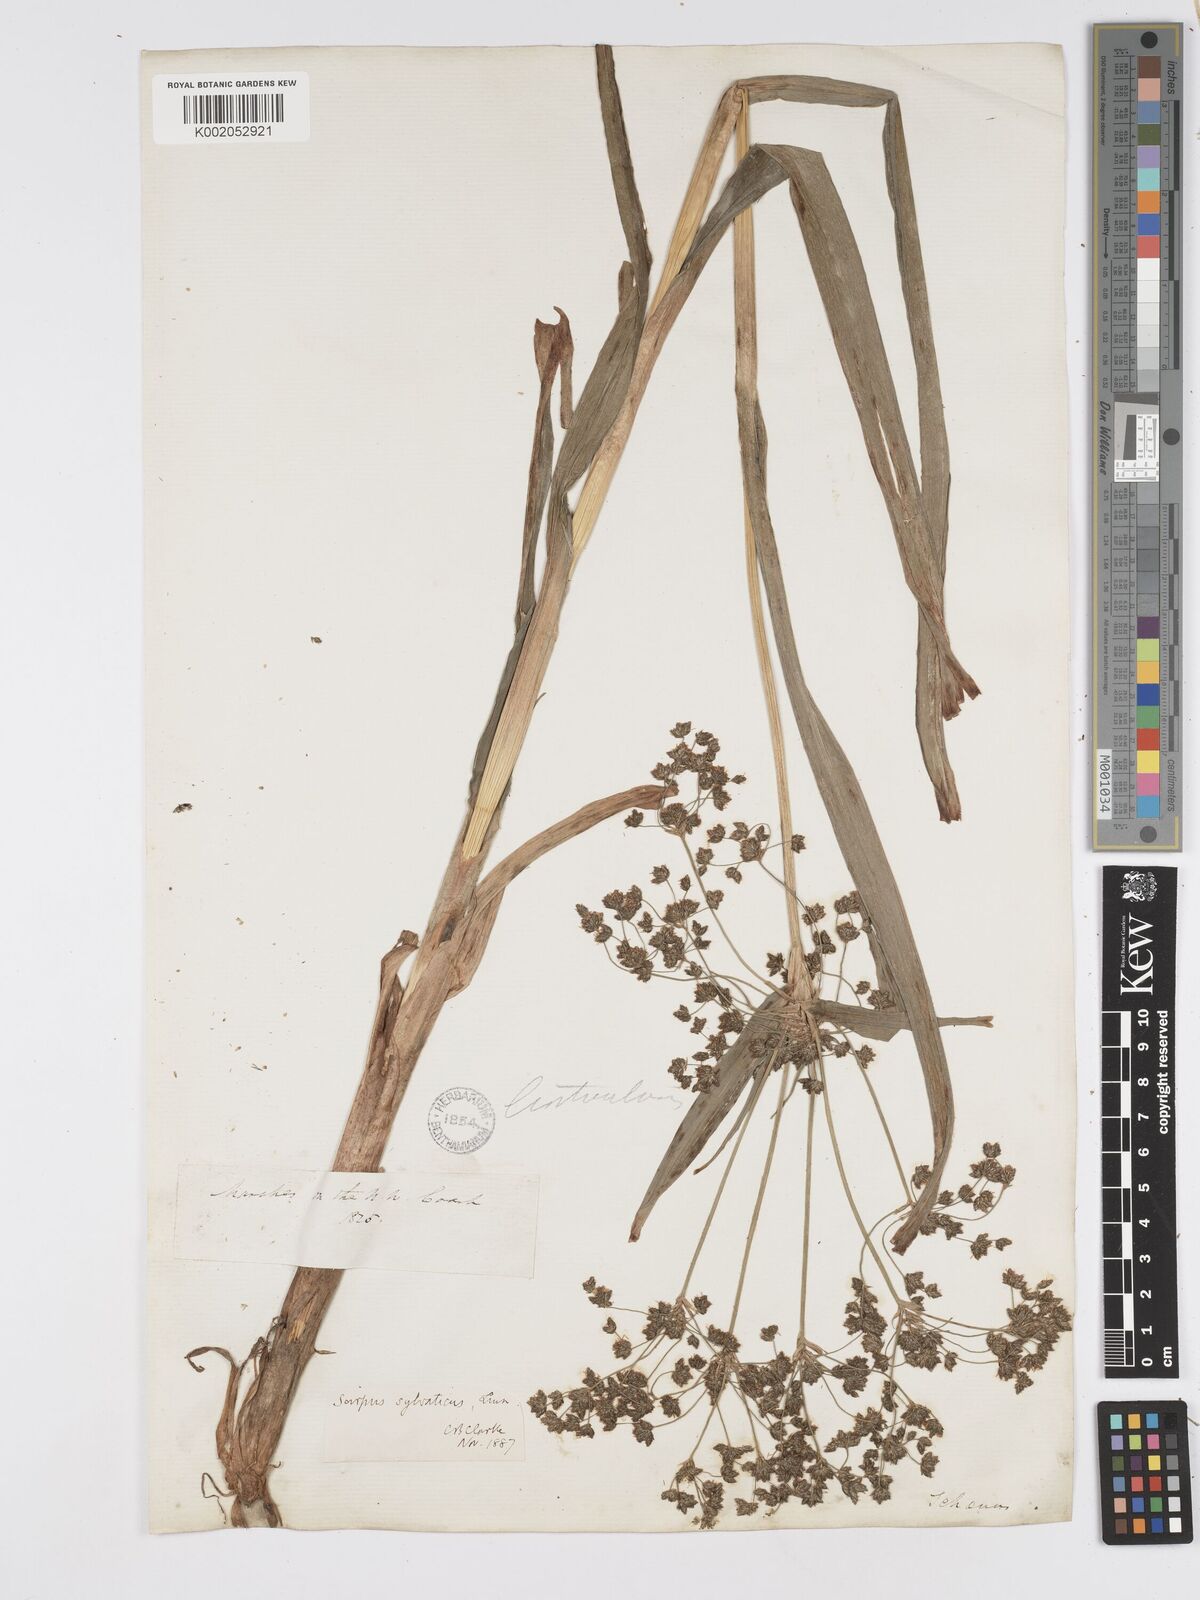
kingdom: Plantae
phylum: Tracheophyta
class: Liliopsida
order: Poales
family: Cyperaceae
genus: Scirpus
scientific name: Scirpus sylvaticus
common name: Wood club-rush
